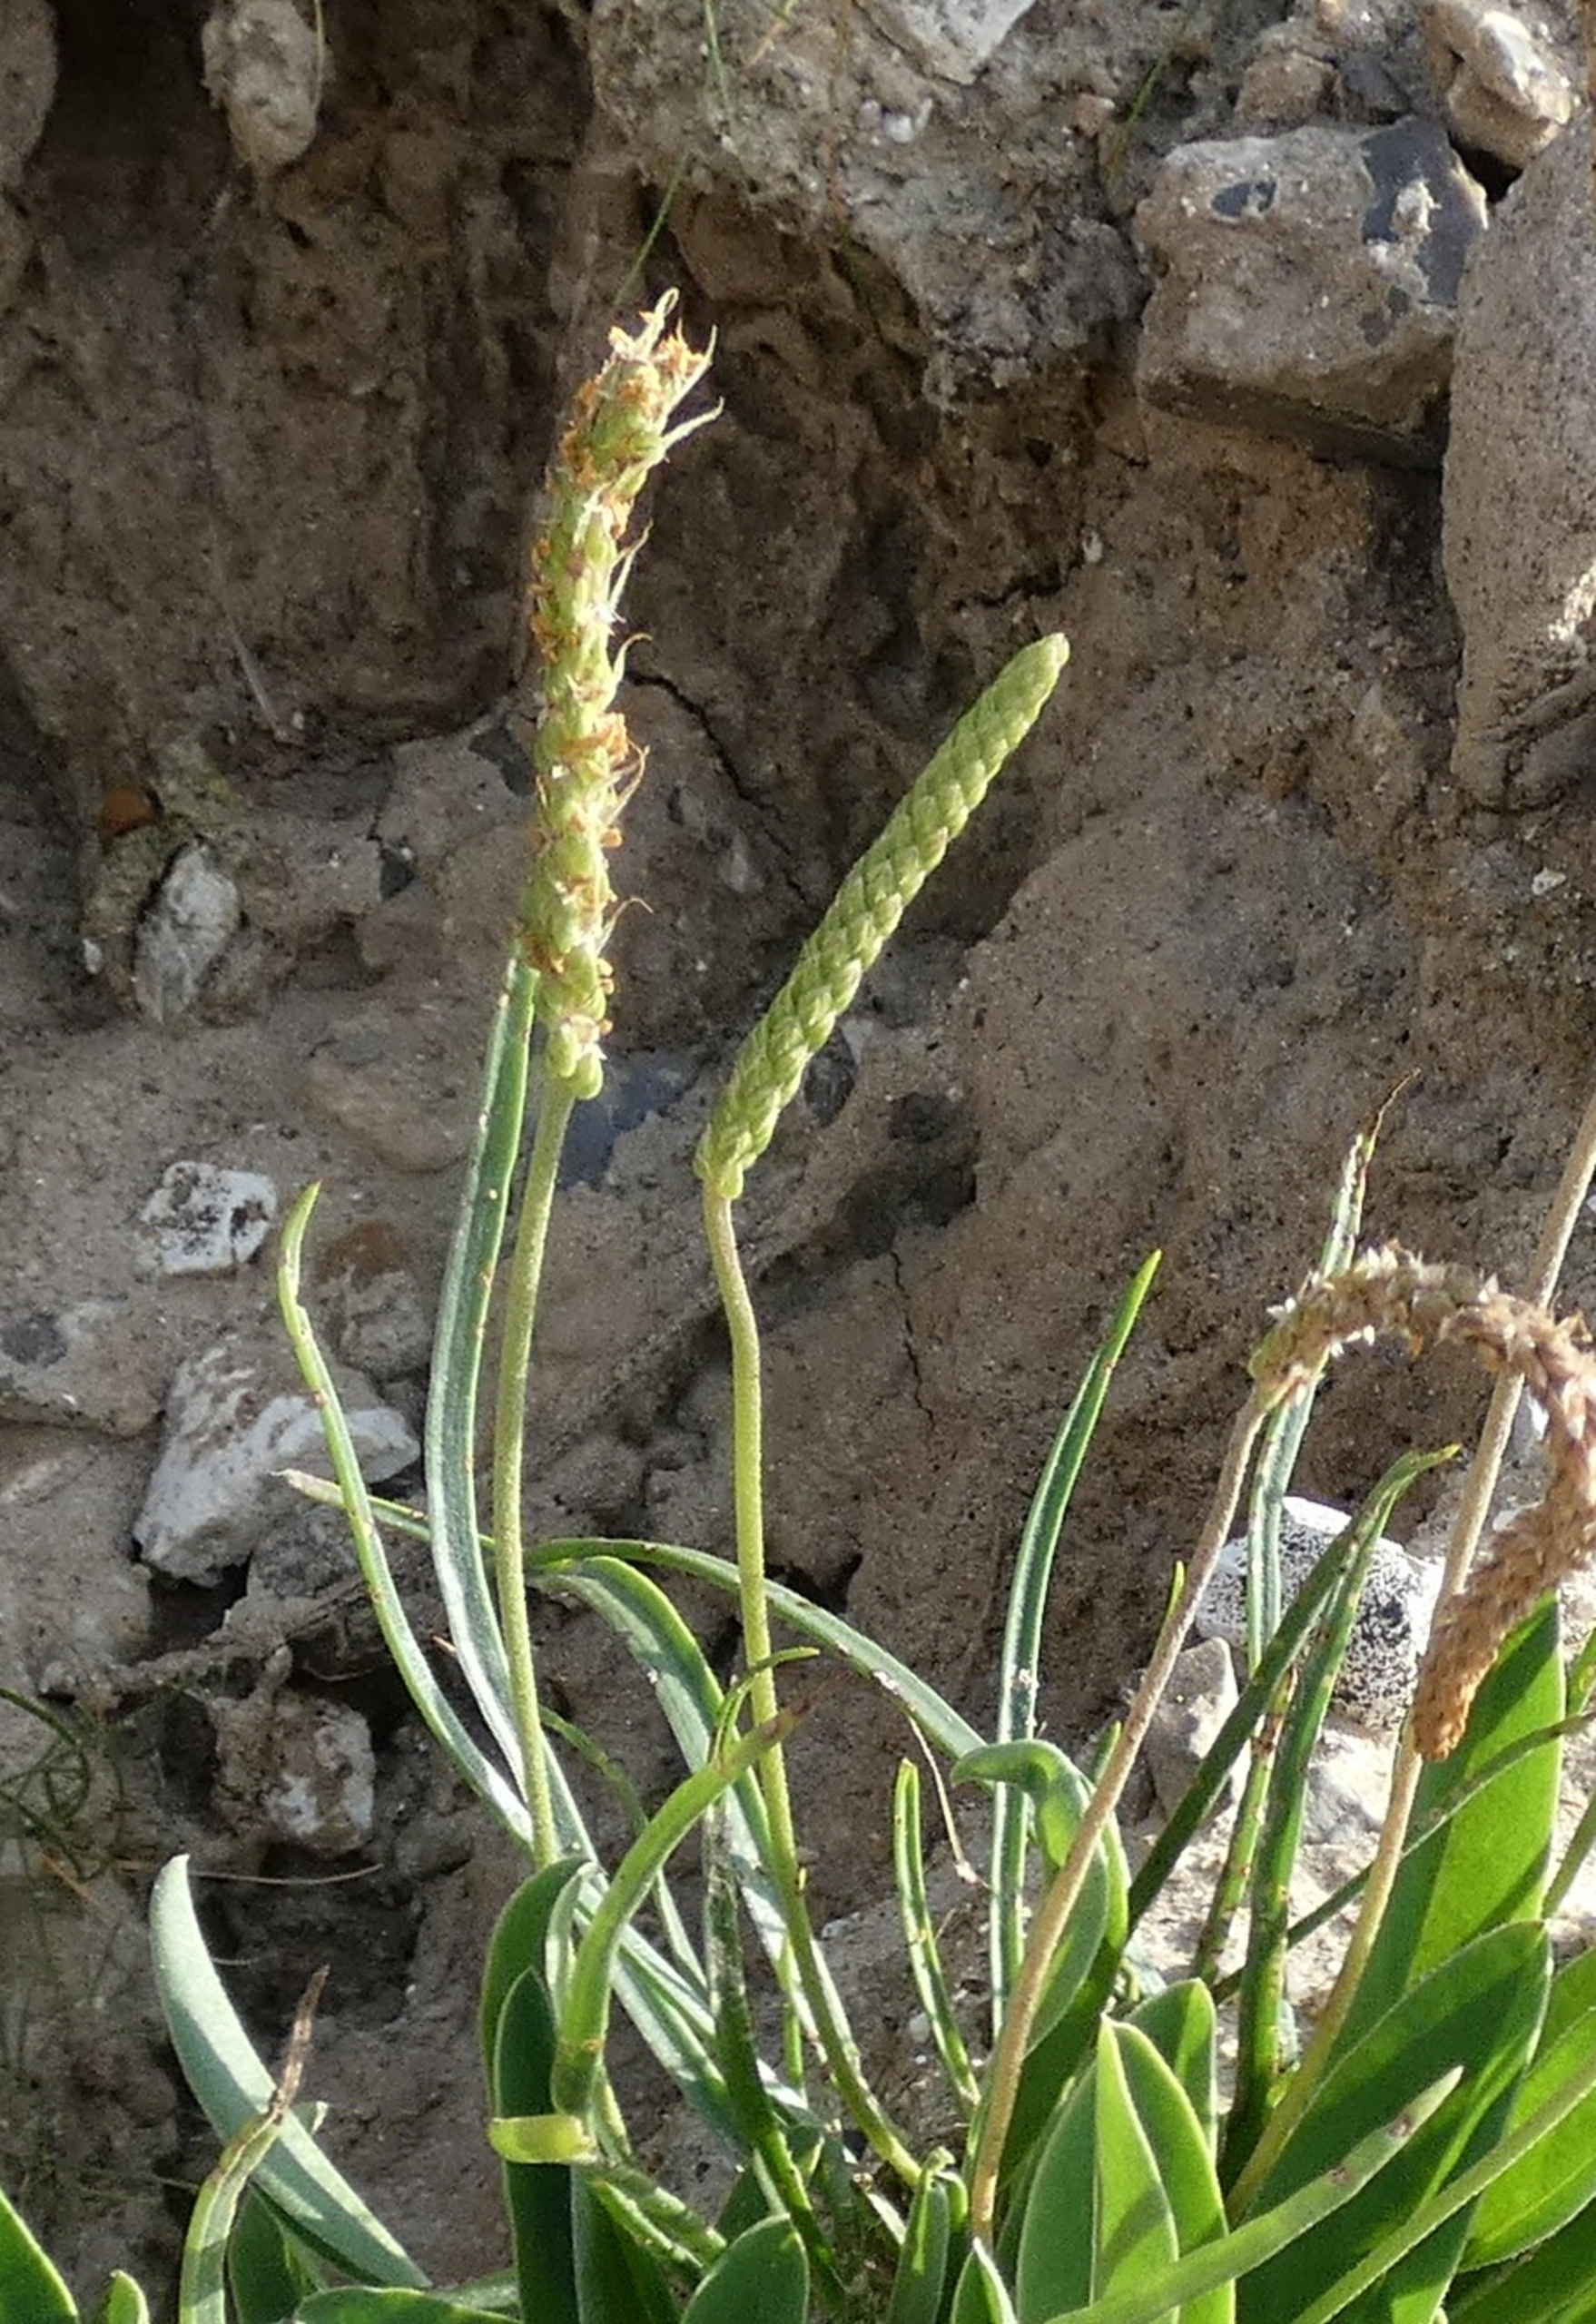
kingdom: Plantae
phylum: Tracheophyta
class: Magnoliopsida
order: Lamiales
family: Plantaginaceae
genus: Plantago
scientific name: Plantago maritima
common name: Strand-vejbred
